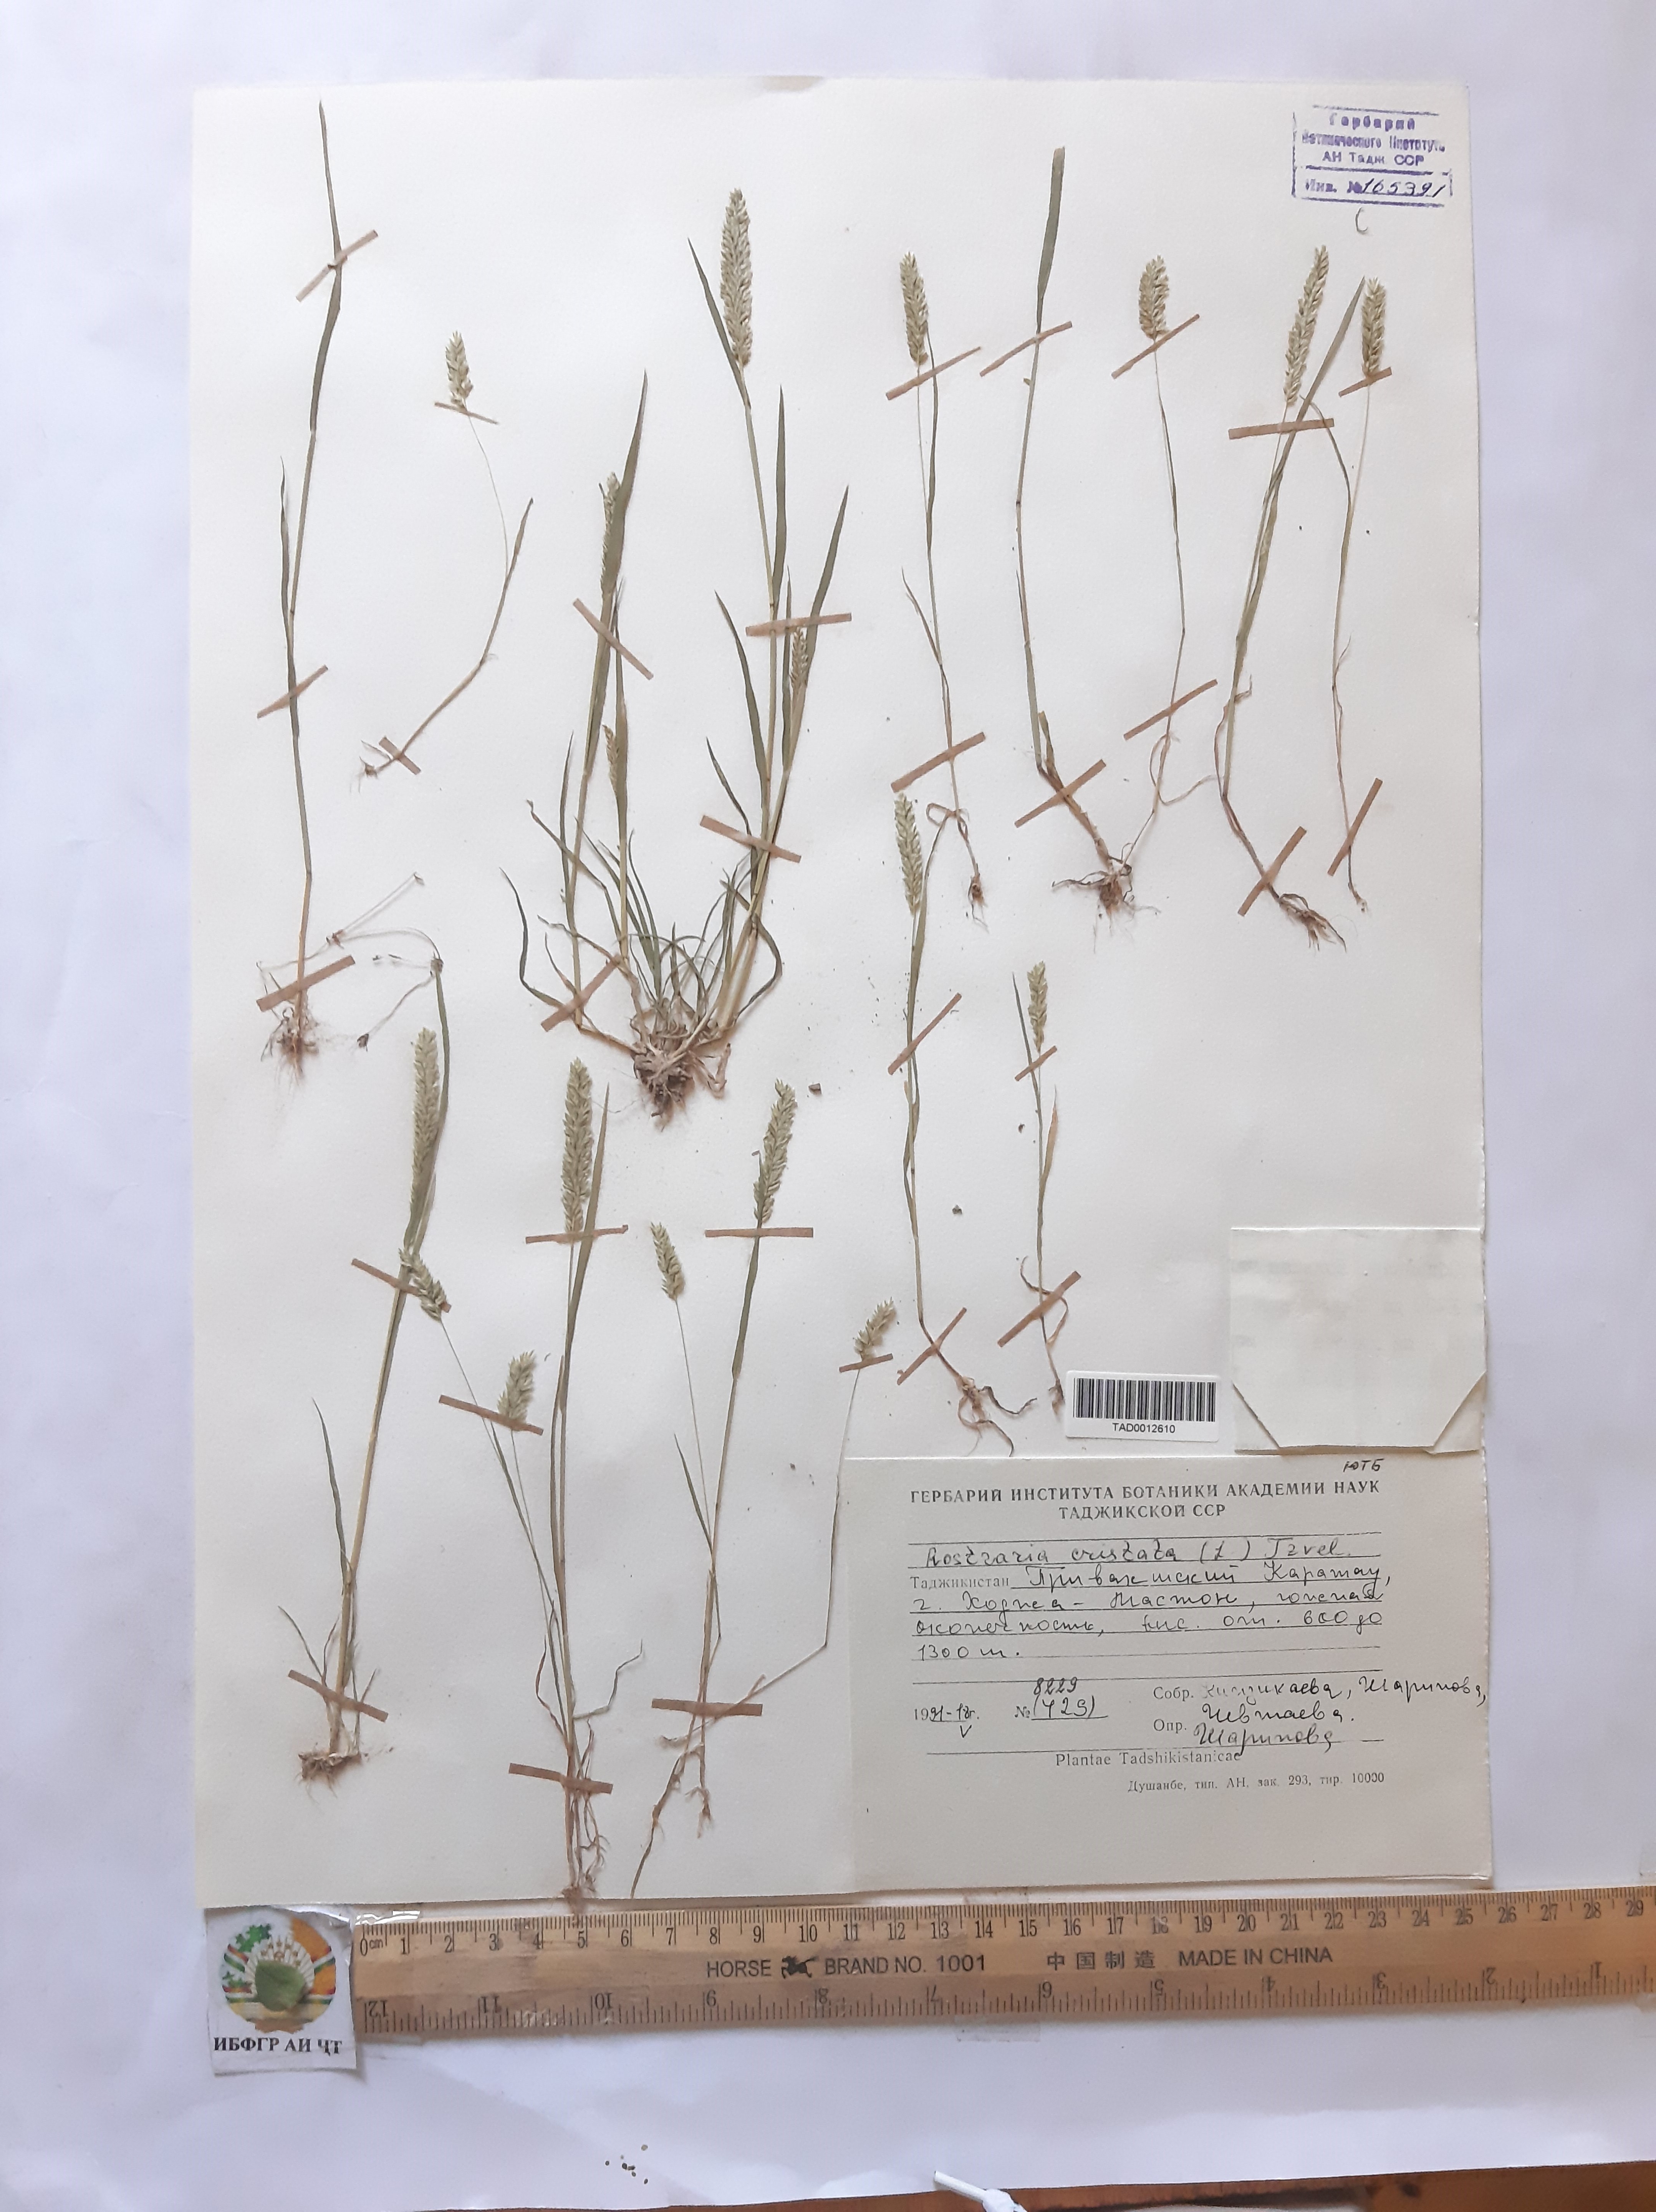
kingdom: Plantae
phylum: Tracheophyta
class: Liliopsida
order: Poales
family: Poaceae
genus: Rostraria
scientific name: Rostraria cristata
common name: Mediterranean hair-grass
